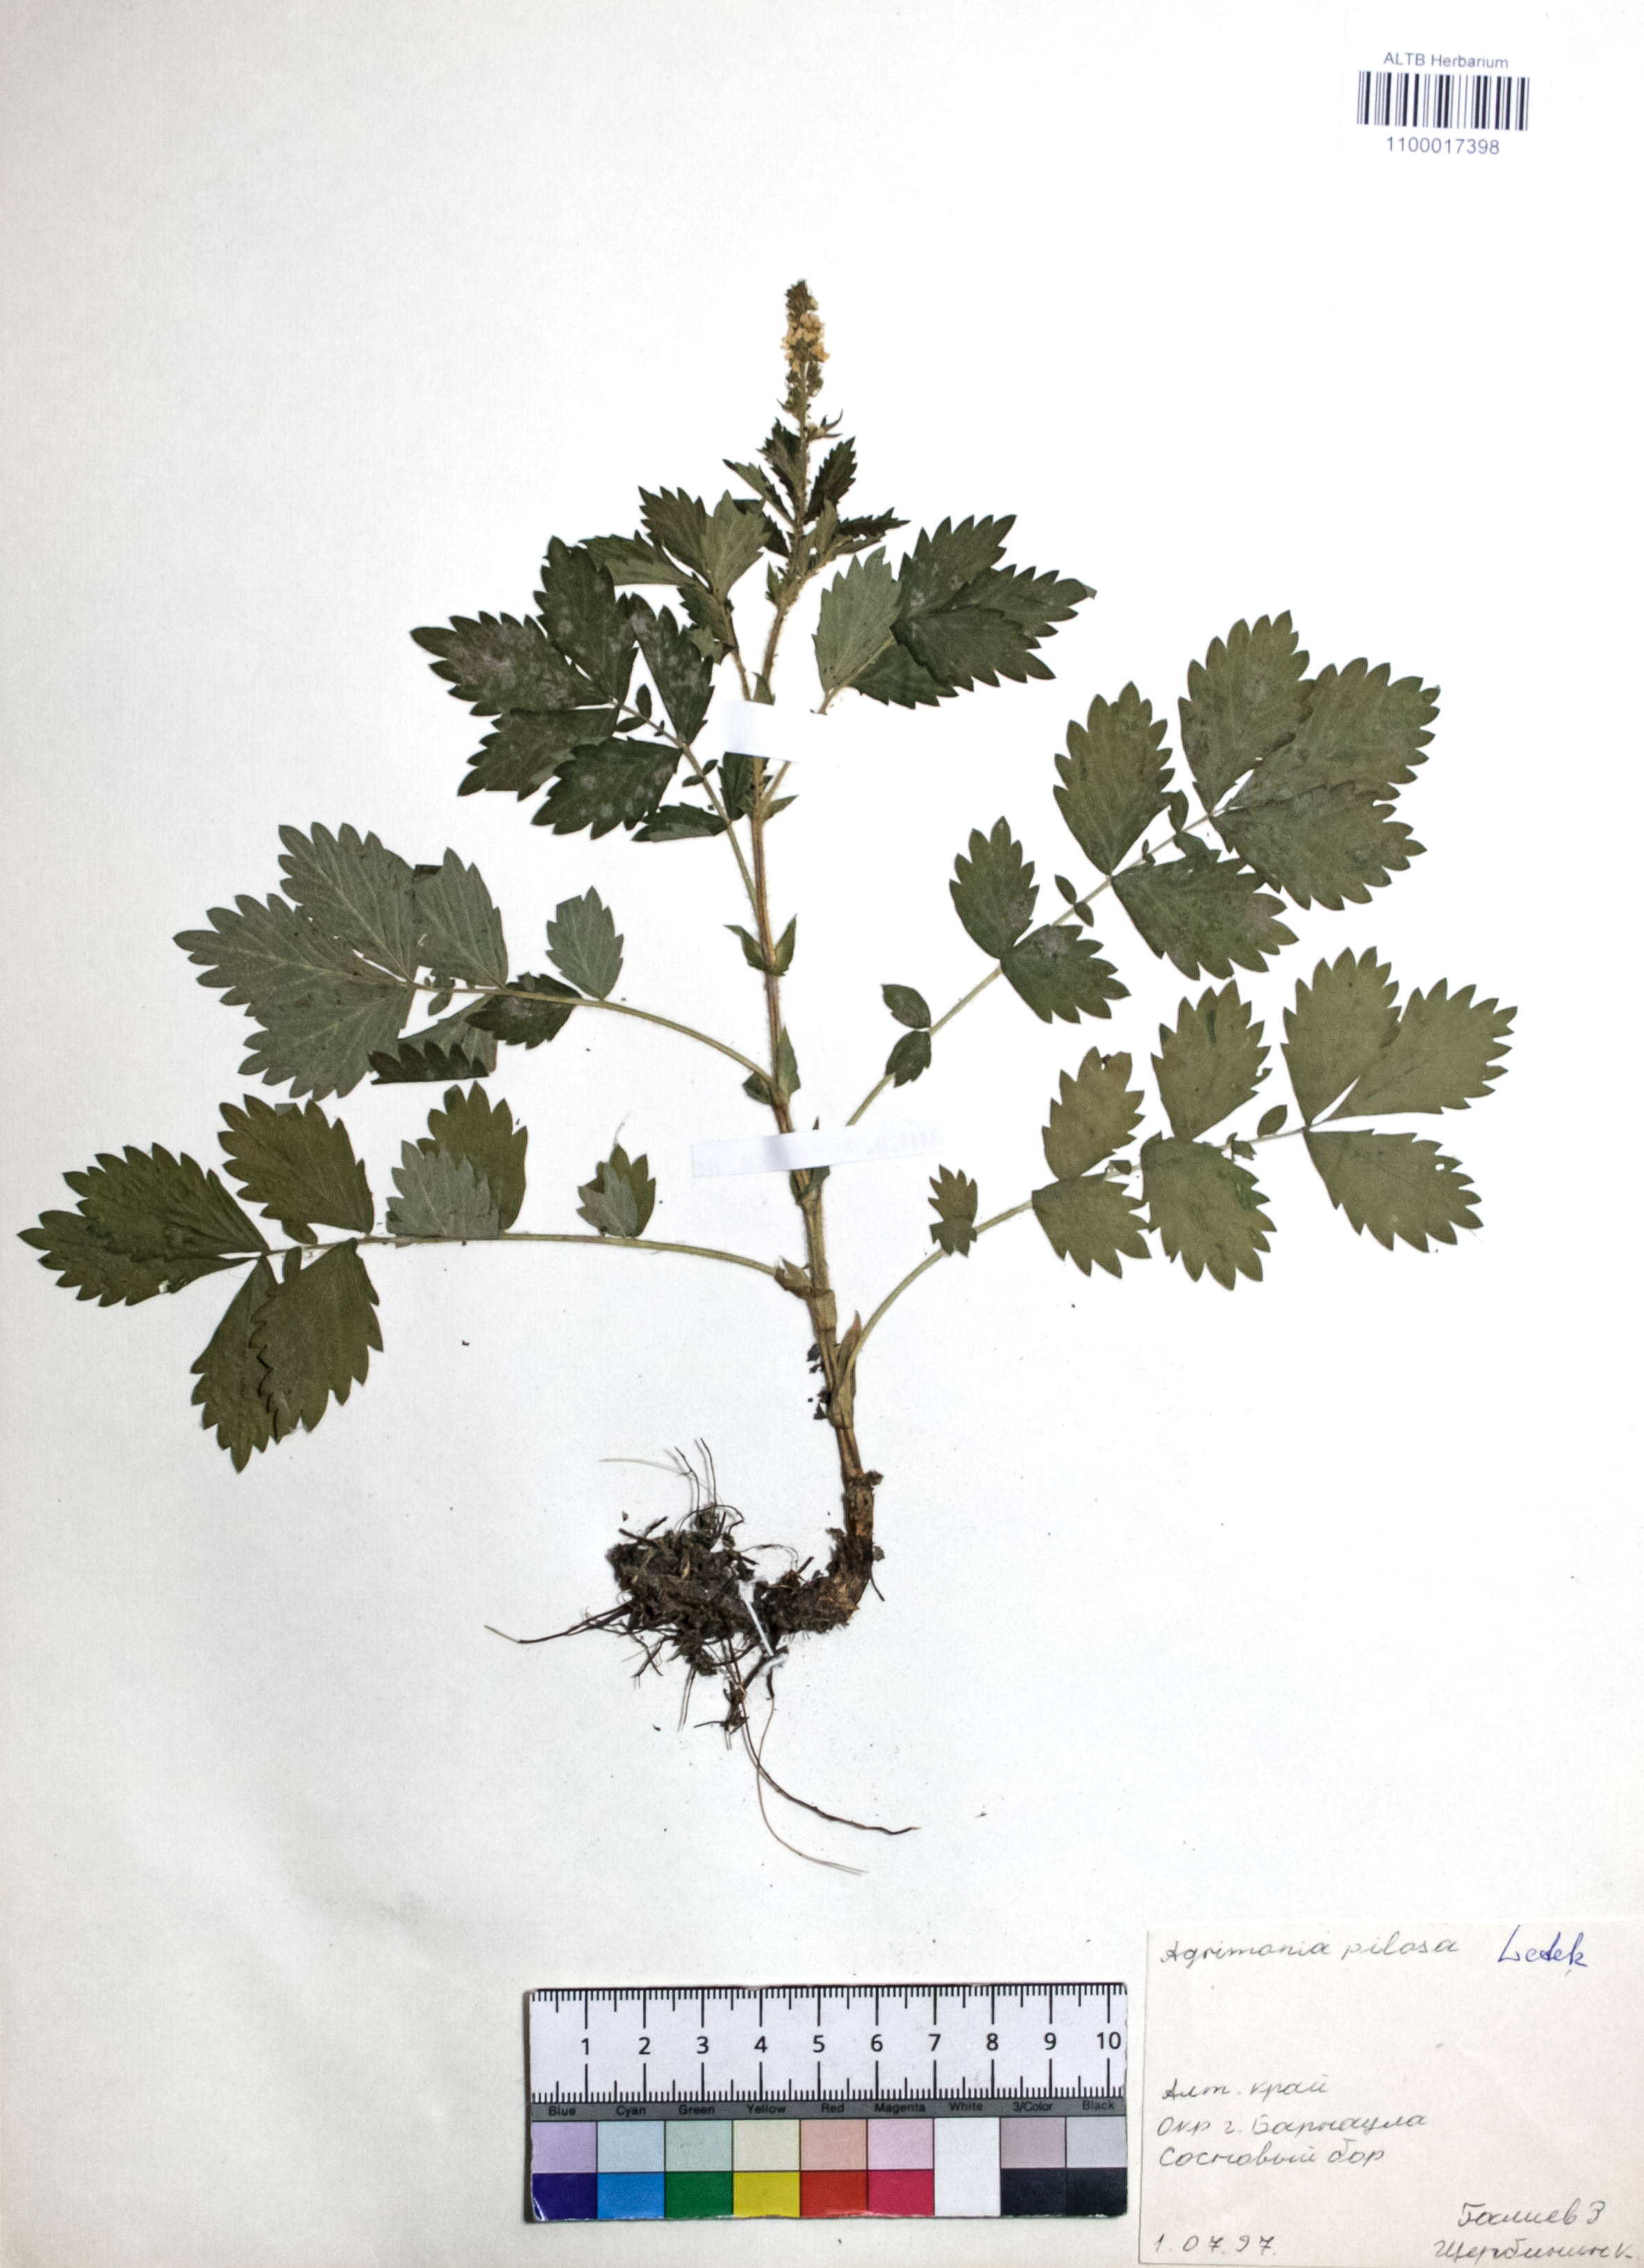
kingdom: Plantae
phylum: Tracheophyta
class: Magnoliopsida
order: Rosales
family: Rosaceae
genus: Agrimonia
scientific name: Agrimonia pilosa
